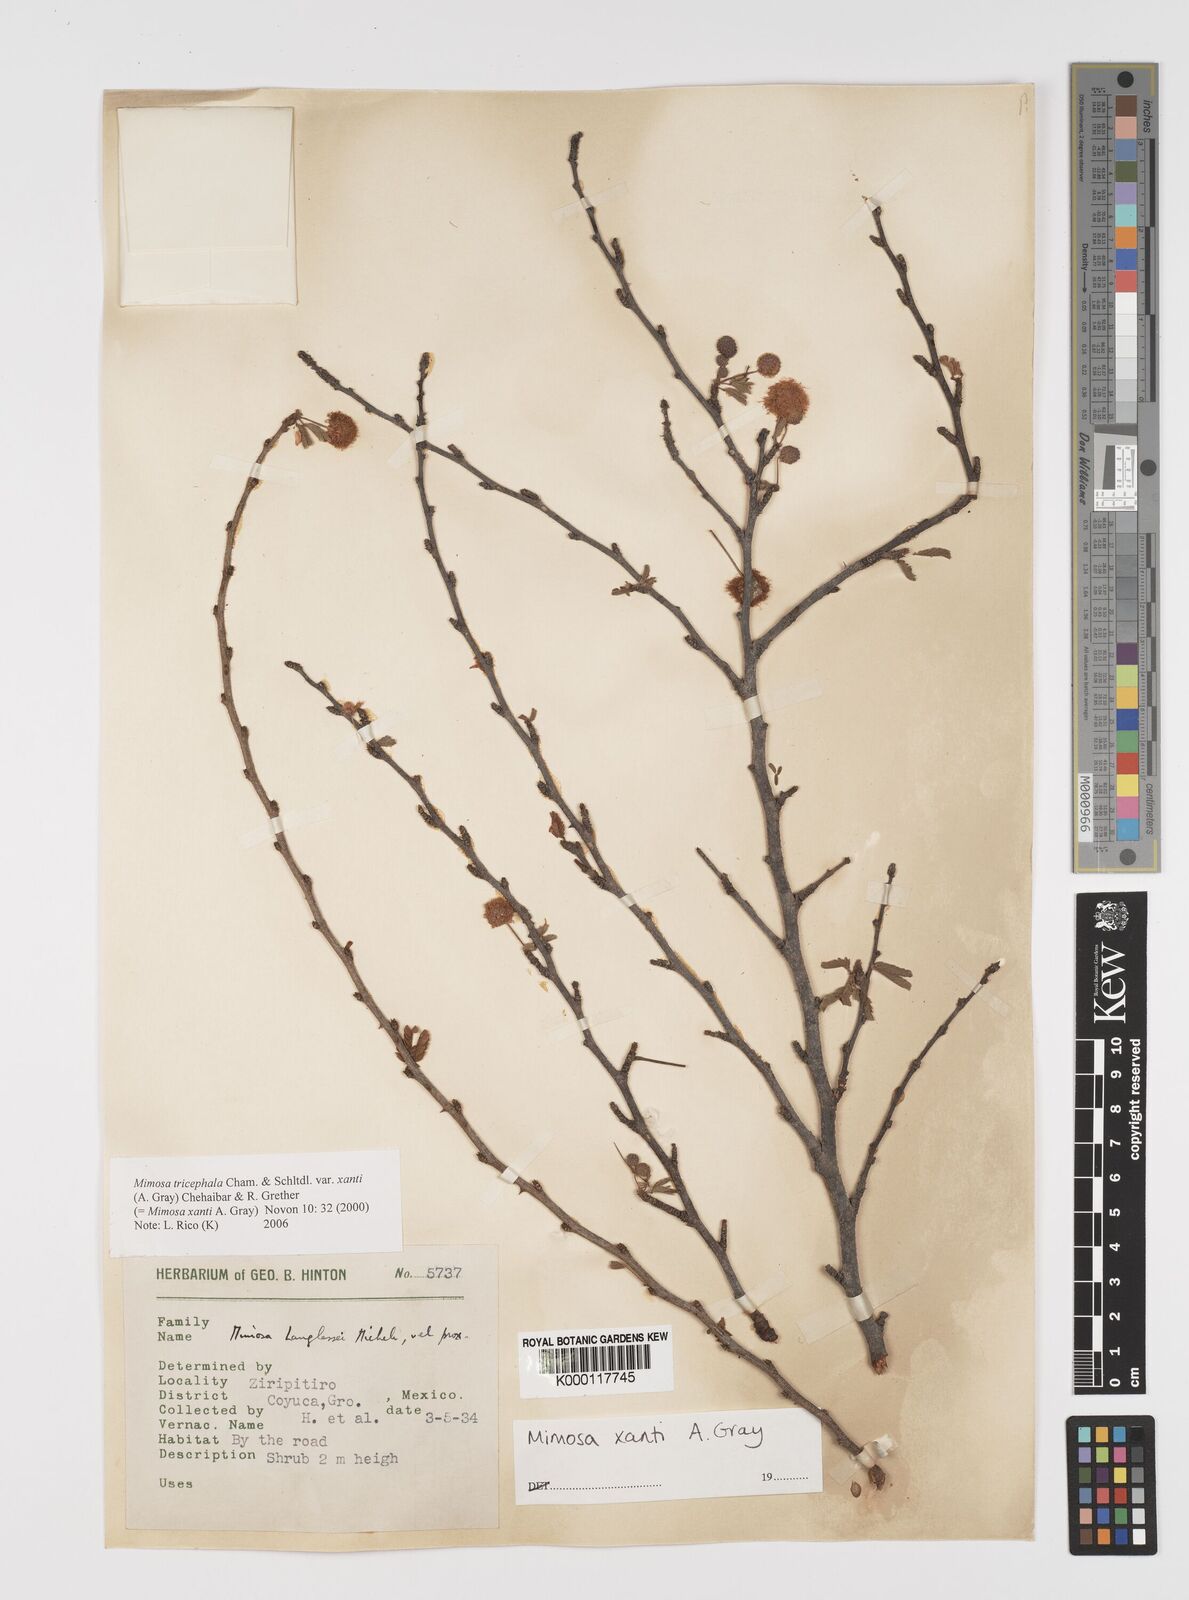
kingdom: Plantae
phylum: Tracheophyta
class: Magnoliopsida
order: Fabales
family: Fabaceae
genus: Mimosa
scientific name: Mimosa tricephala
